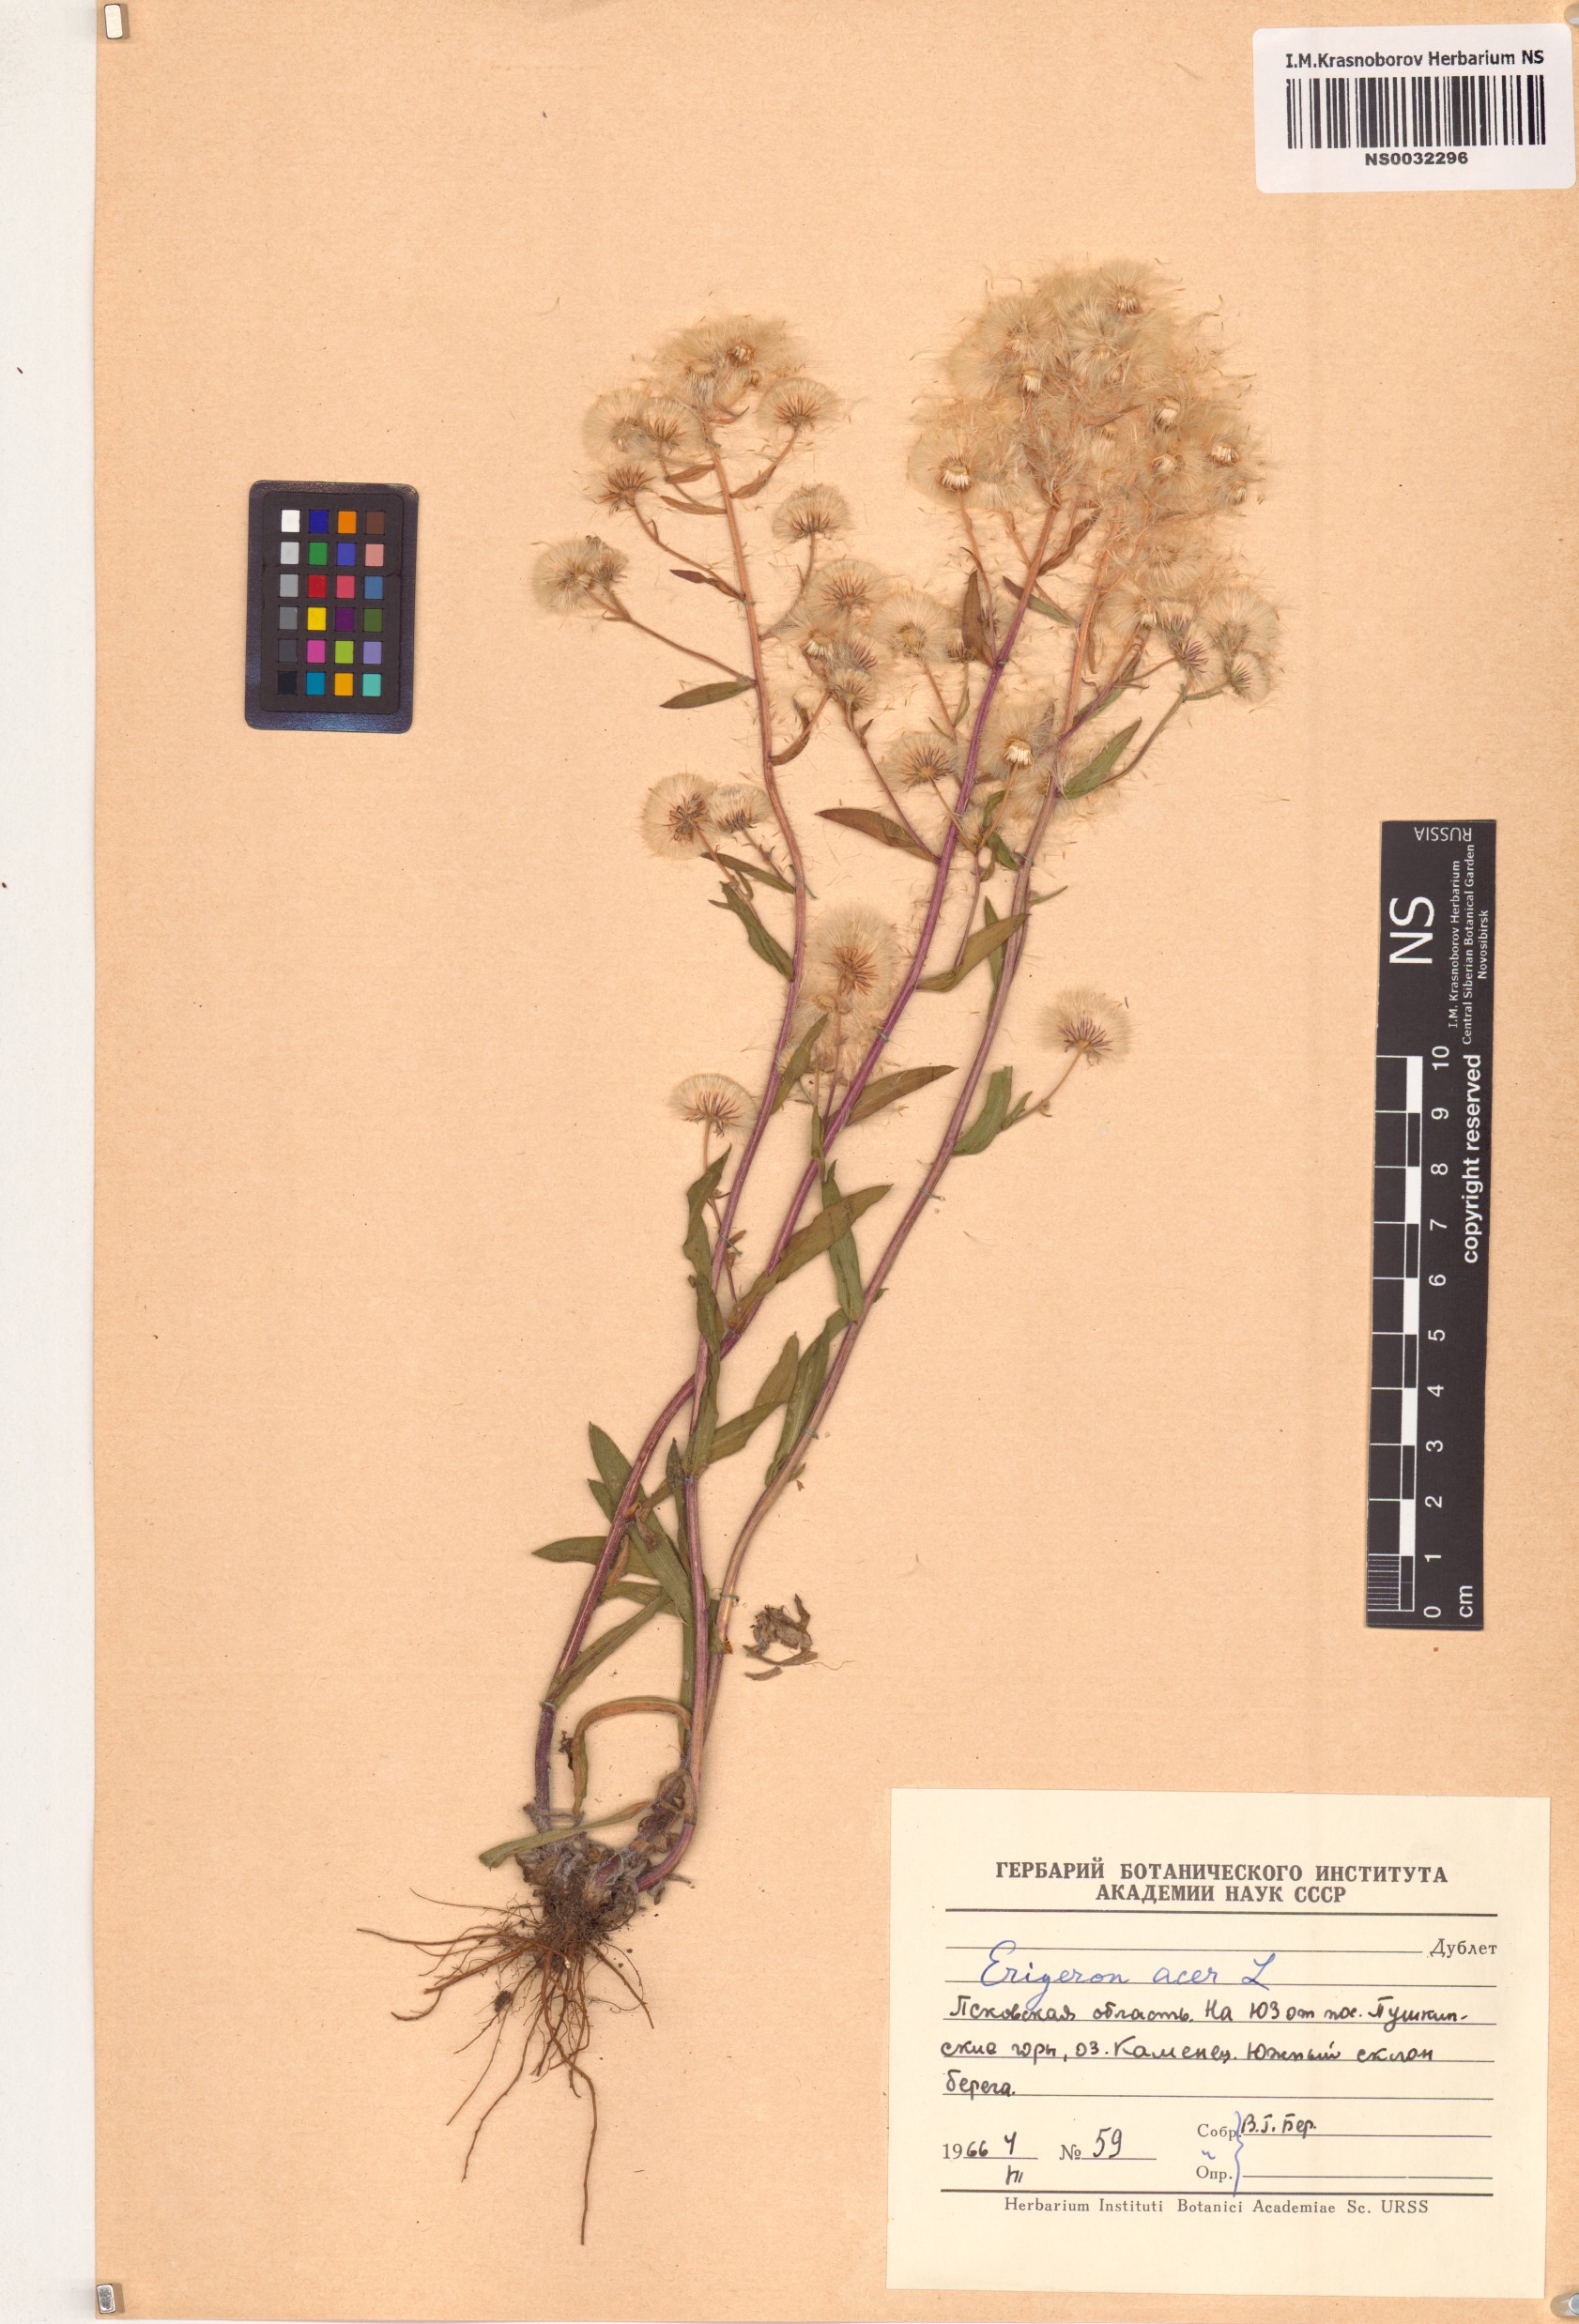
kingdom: Plantae
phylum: Tracheophyta
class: Magnoliopsida
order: Asterales
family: Asteraceae
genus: Erigeron
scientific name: Erigeron acris
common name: Blue fleabane
